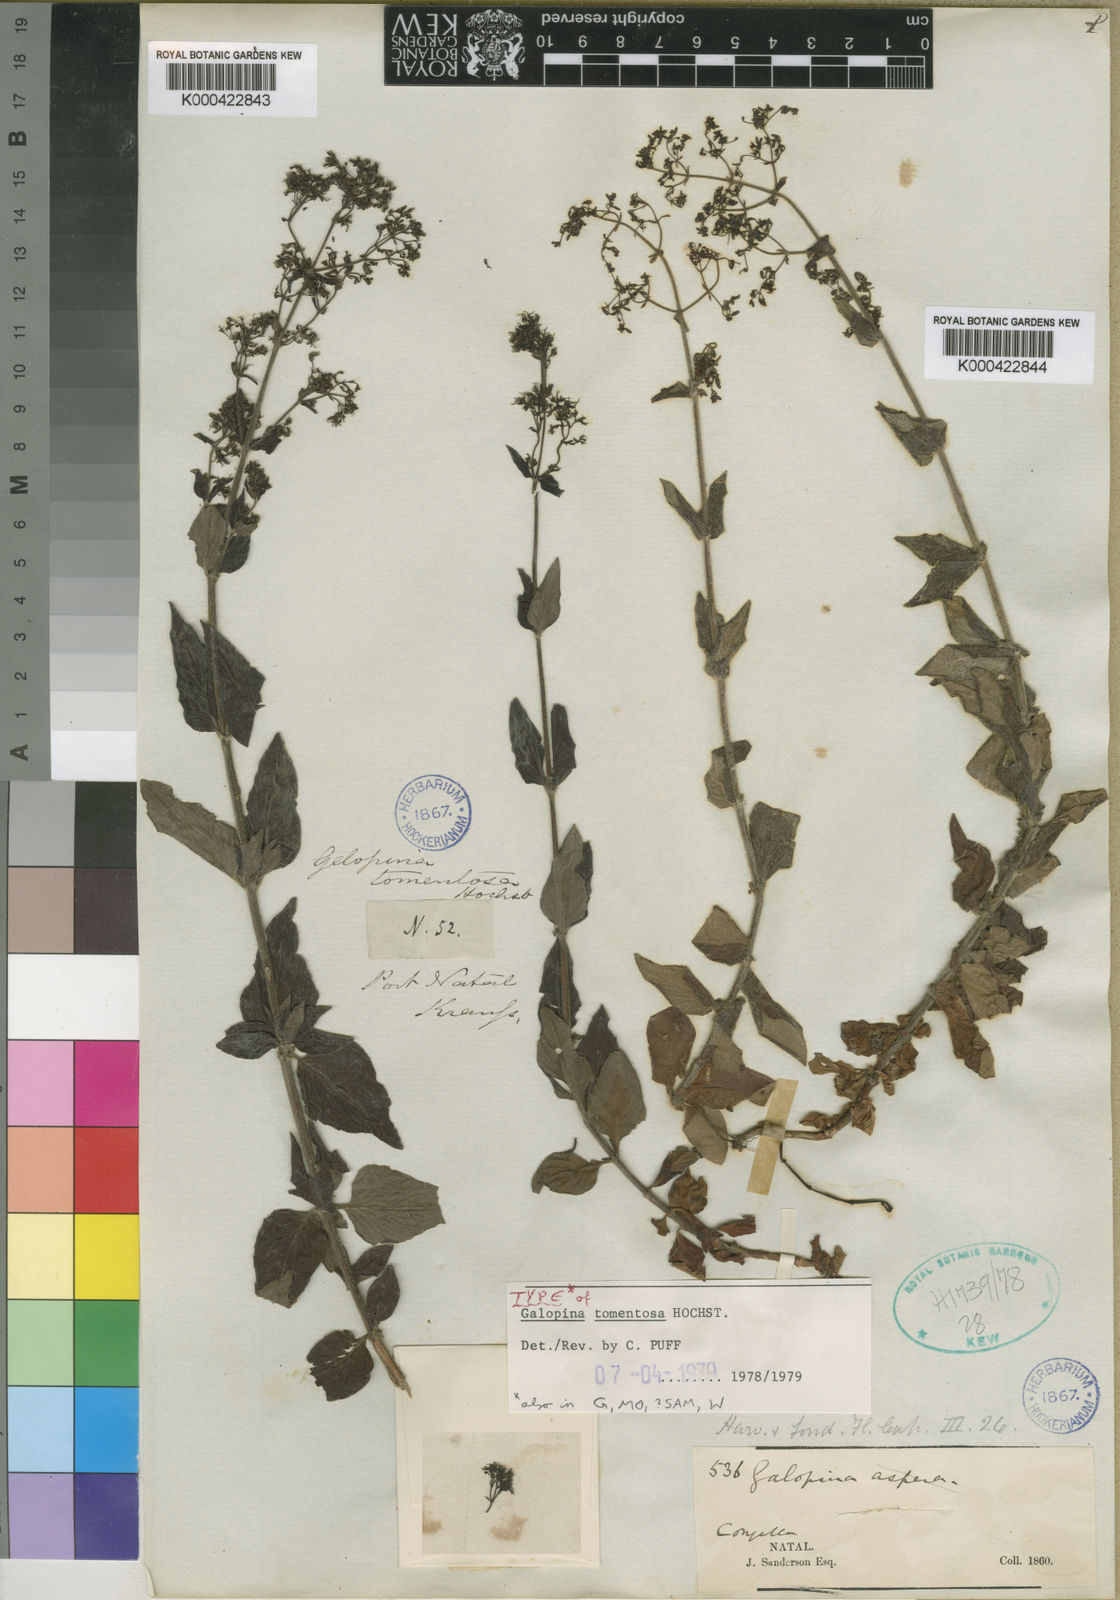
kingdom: Plantae
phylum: Tracheophyta
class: Magnoliopsida
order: Gentianales
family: Rubiaceae
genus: Galopina
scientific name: Galopina tomentosa
